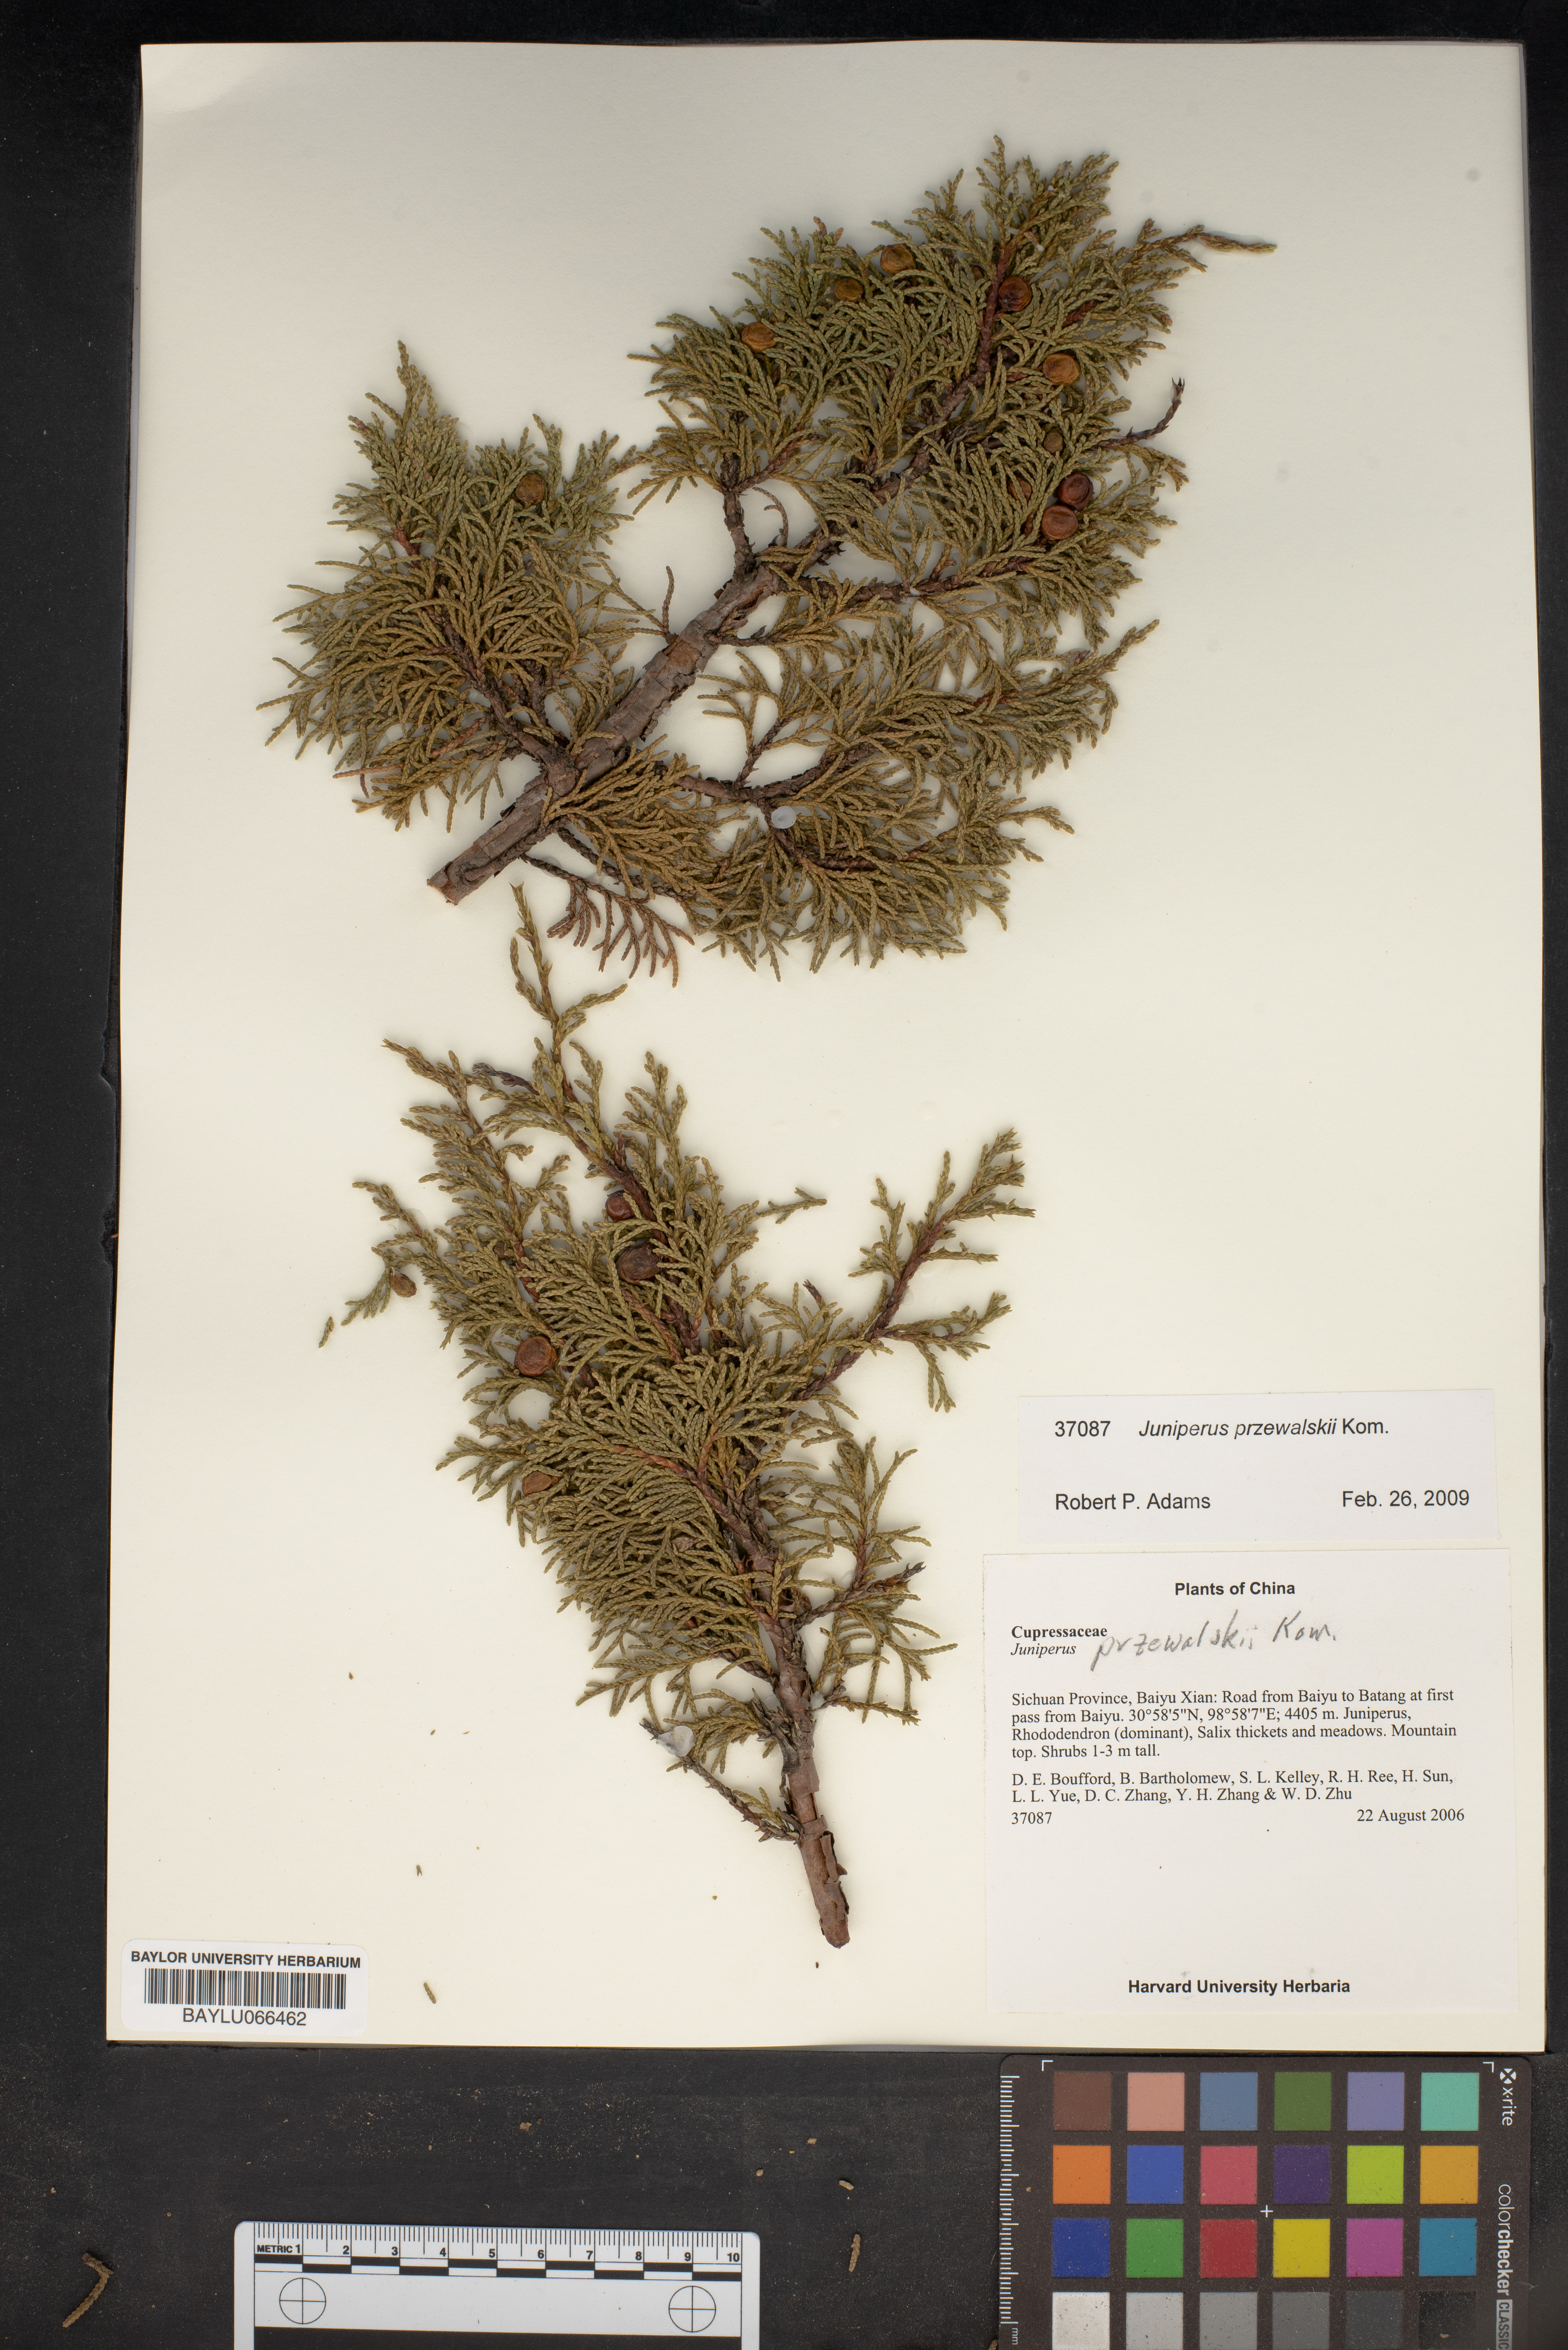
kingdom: Plantae
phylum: Tracheophyta
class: Pinopsida
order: Pinales
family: Cupressaceae
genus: Juniperus
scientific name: Juniperus przewalskii
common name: Przewalsi juniper
